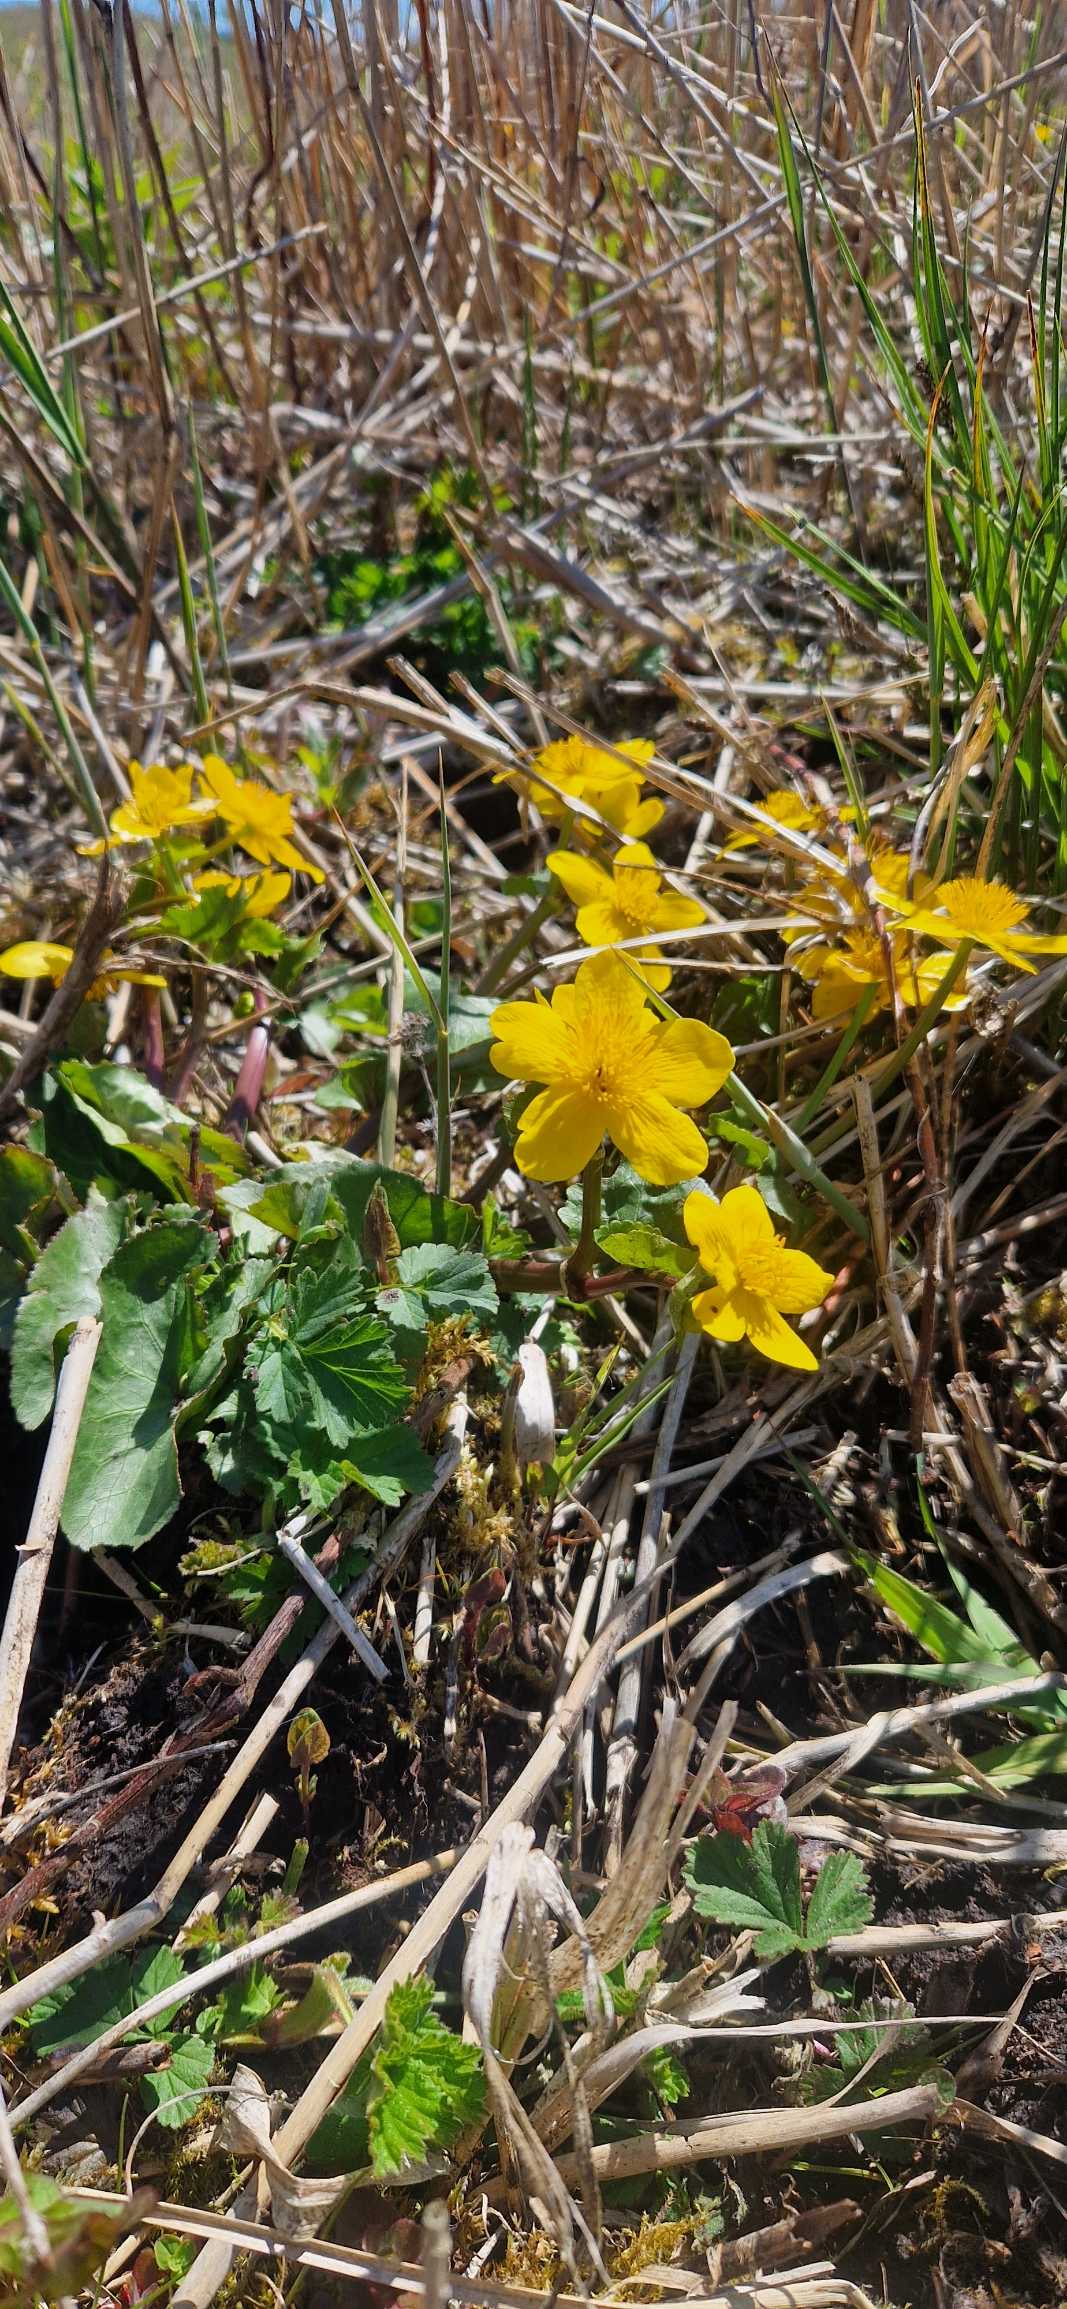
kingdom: Plantae
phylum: Tracheophyta
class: Magnoliopsida
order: Ranunculales
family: Ranunculaceae
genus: Caltha
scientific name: Caltha palustris
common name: Eng-kabbeleje (underart)
